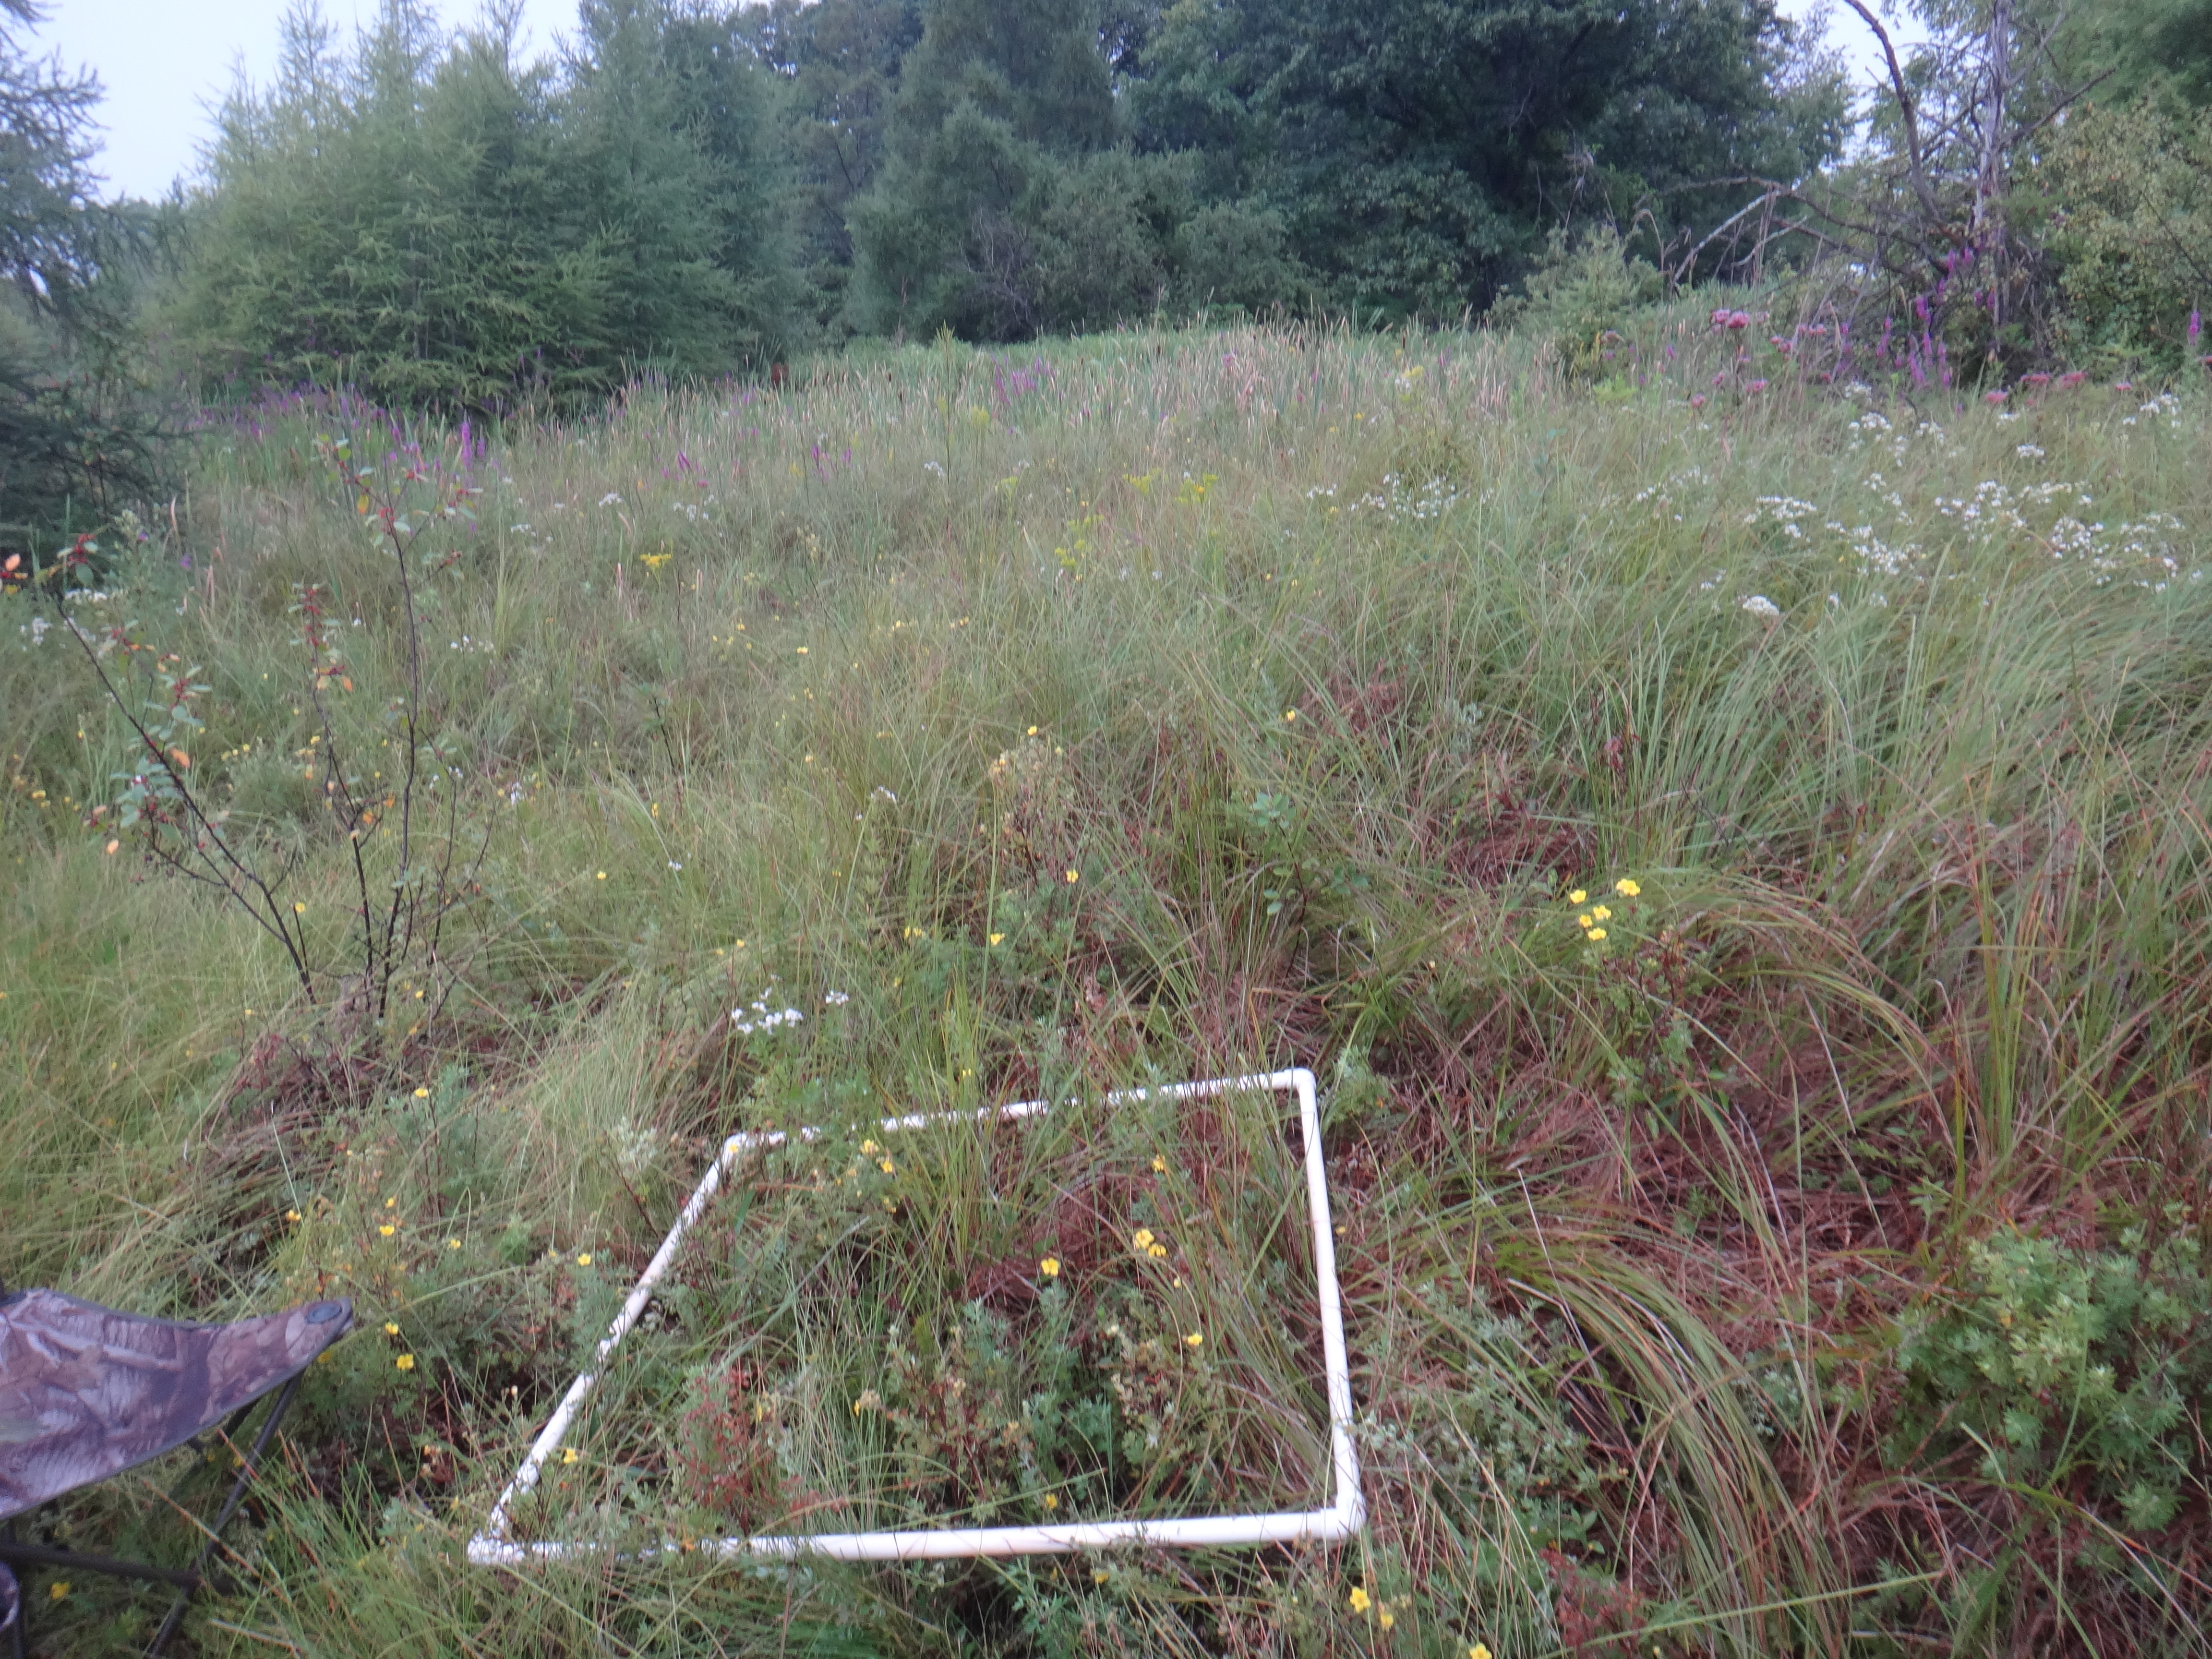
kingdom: Plantae
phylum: Tracheophyta
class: Magnoliopsida
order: Lamiales
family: Lamiaceae
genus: Pycnanthemum
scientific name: Pycnanthemum virginianum
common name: Virginia mountain-mint
